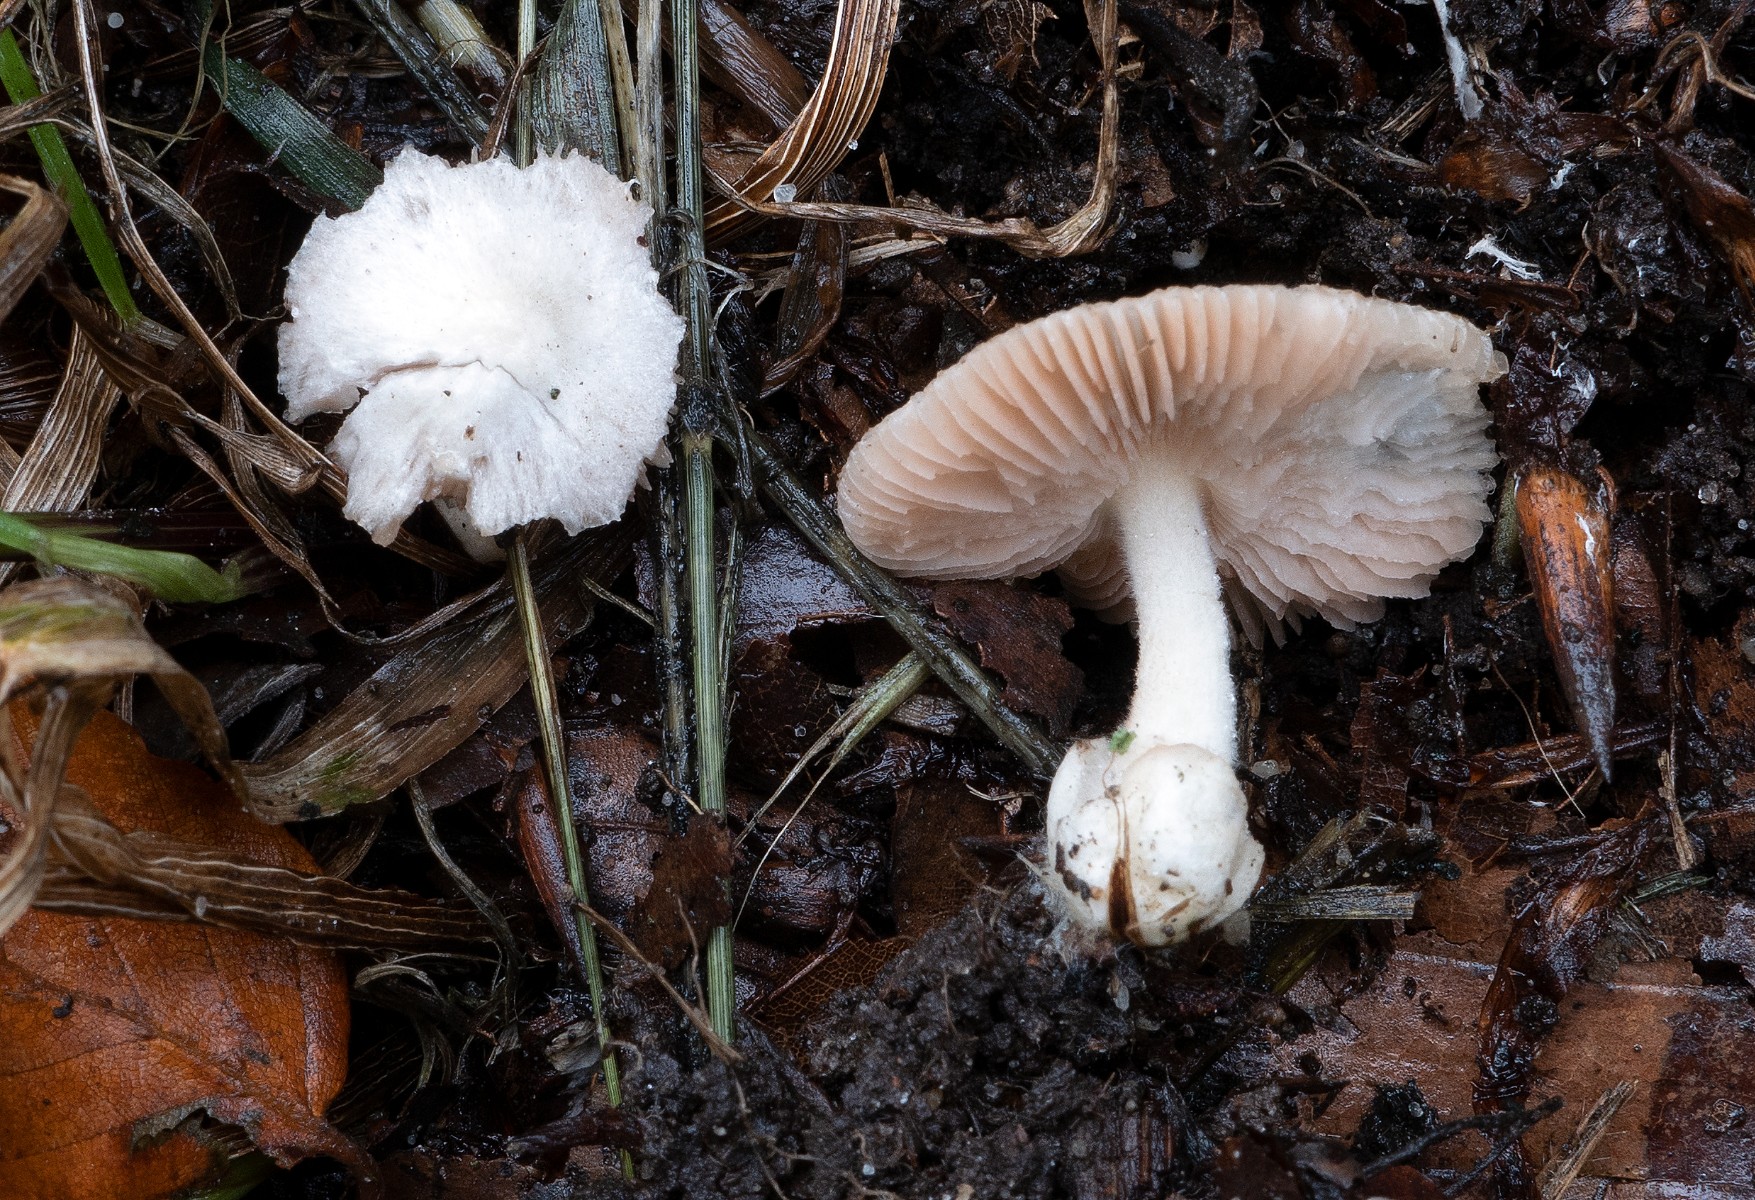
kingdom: Fungi
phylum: Basidiomycota
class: Agaricomycetes
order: Agaricales
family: Pluteaceae
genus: Volvariella
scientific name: Volvariella hypopithys
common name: dunstokket posesvamp
